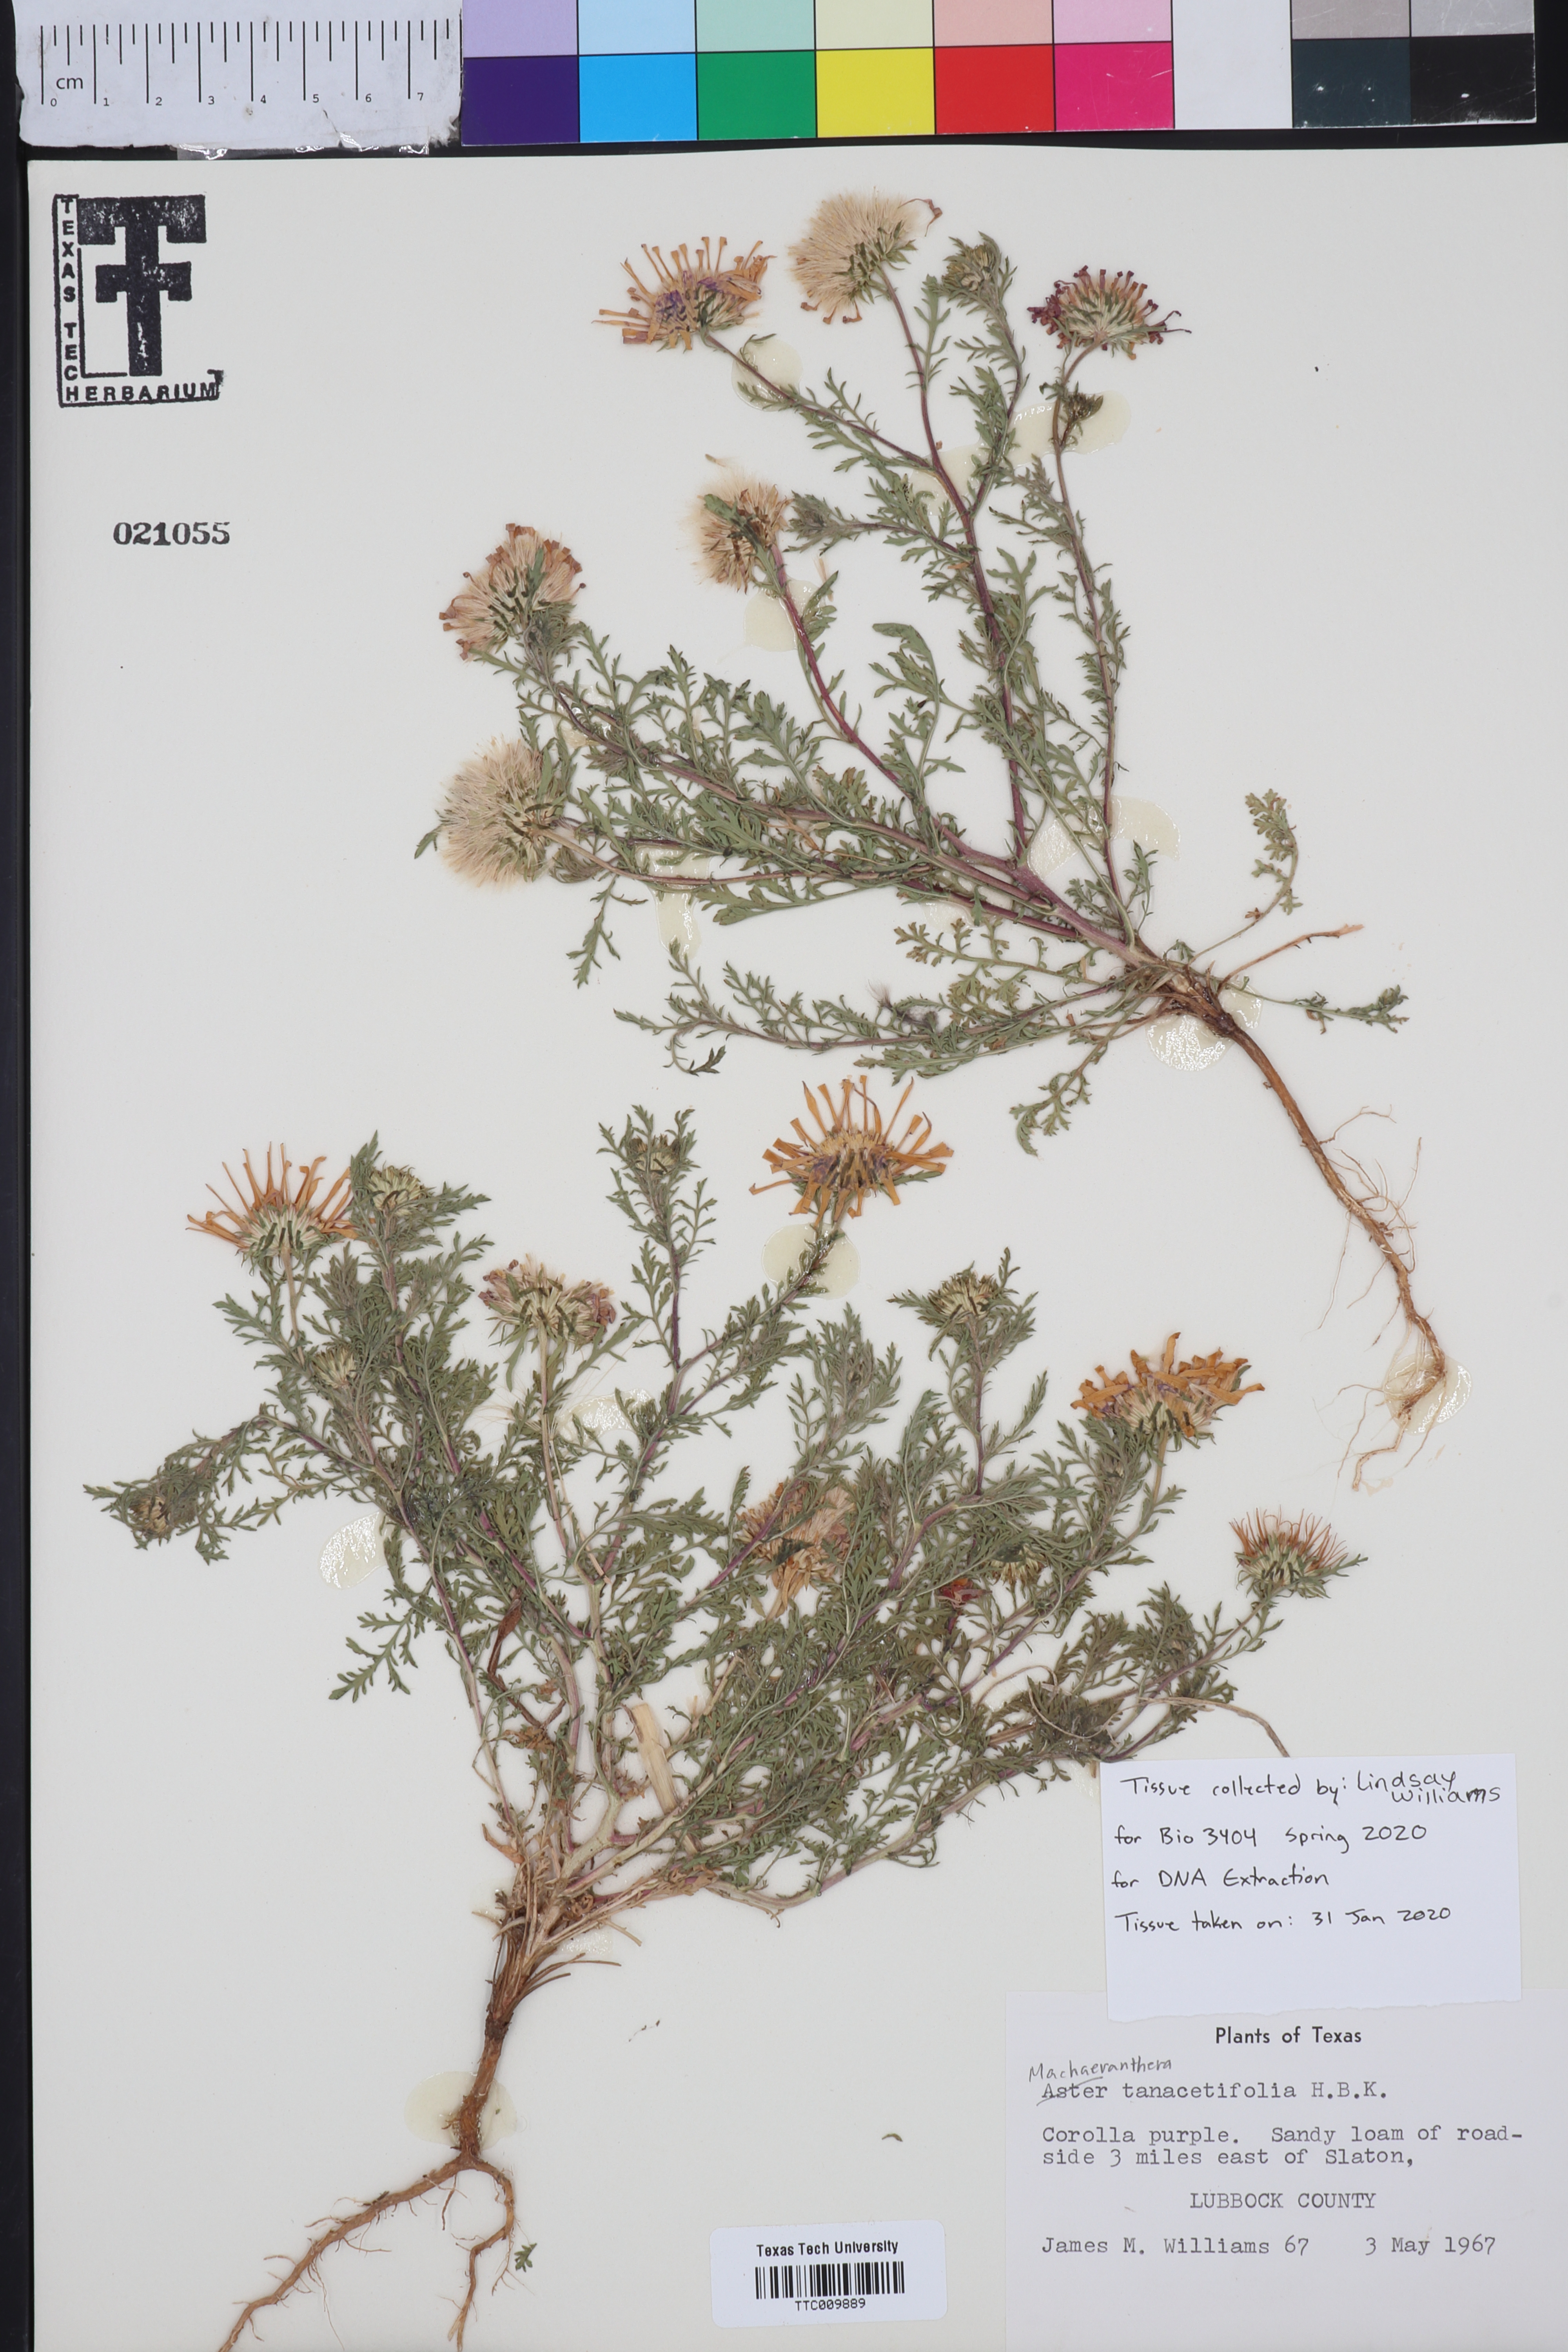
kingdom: Plantae
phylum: Tracheophyta
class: Magnoliopsida
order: Asterales
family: Asteraceae
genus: Machaeranthera
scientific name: Machaeranthera tanacetifolia
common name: Tansy-aster
